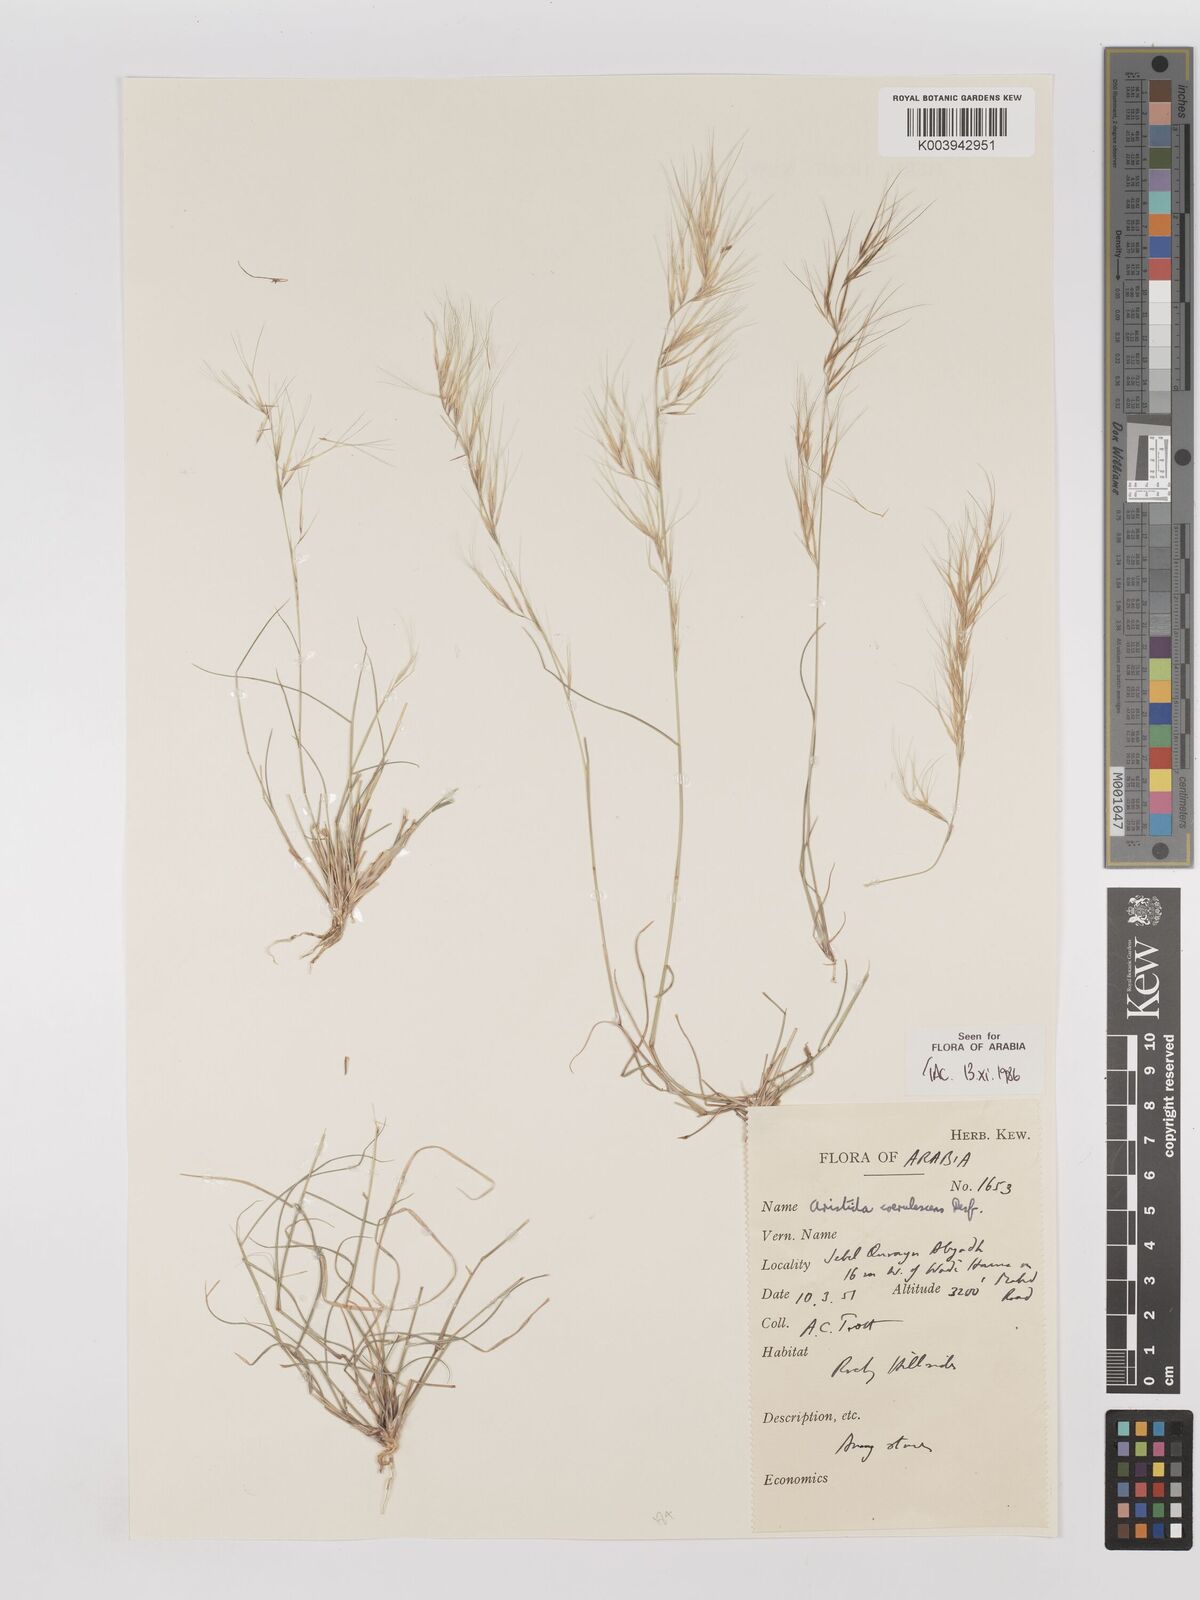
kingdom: Plantae
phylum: Tracheophyta
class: Liliopsida
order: Poales
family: Poaceae
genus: Aristida
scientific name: Aristida adscensionis
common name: Sixweeks threeawn
